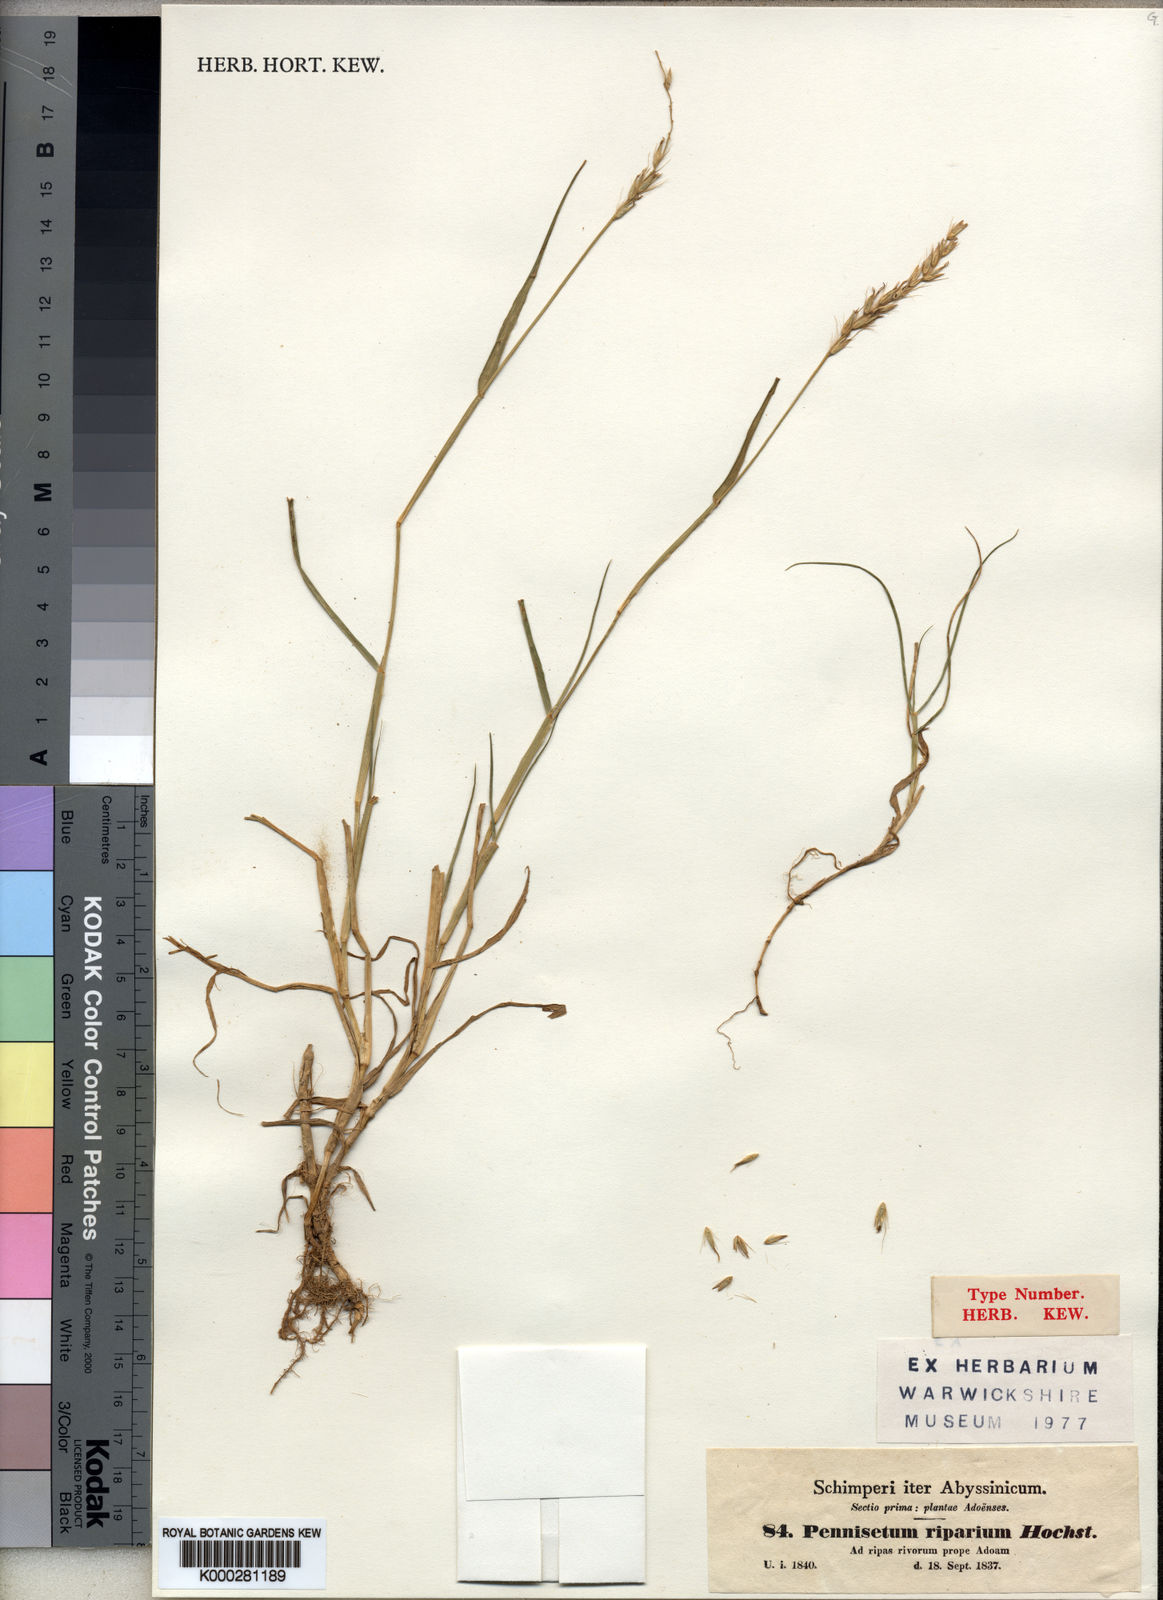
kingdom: Plantae
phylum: Tracheophyta
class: Liliopsida
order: Poales
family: Poaceae
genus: Cenchrus
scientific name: Cenchrus riparius
